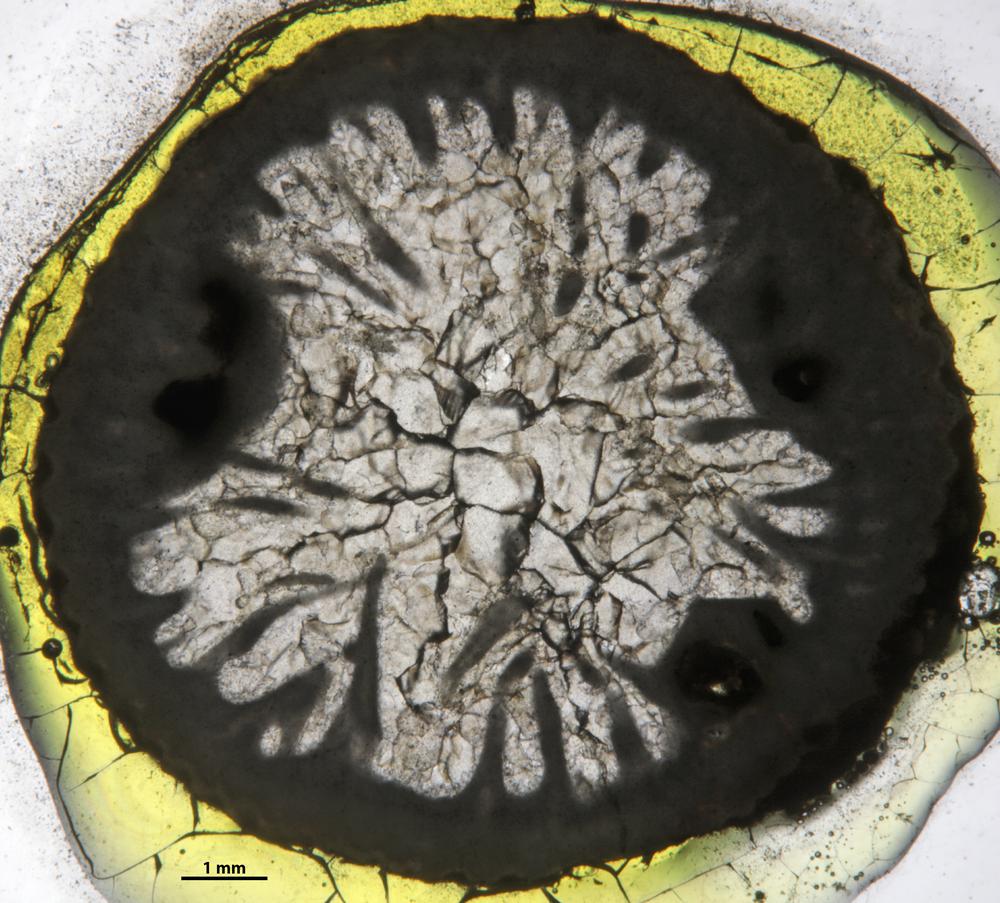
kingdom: Animalia
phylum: Cnidaria
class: Anthozoa
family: Lambelasmatidae
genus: Estonielasma
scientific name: Estonielasma
